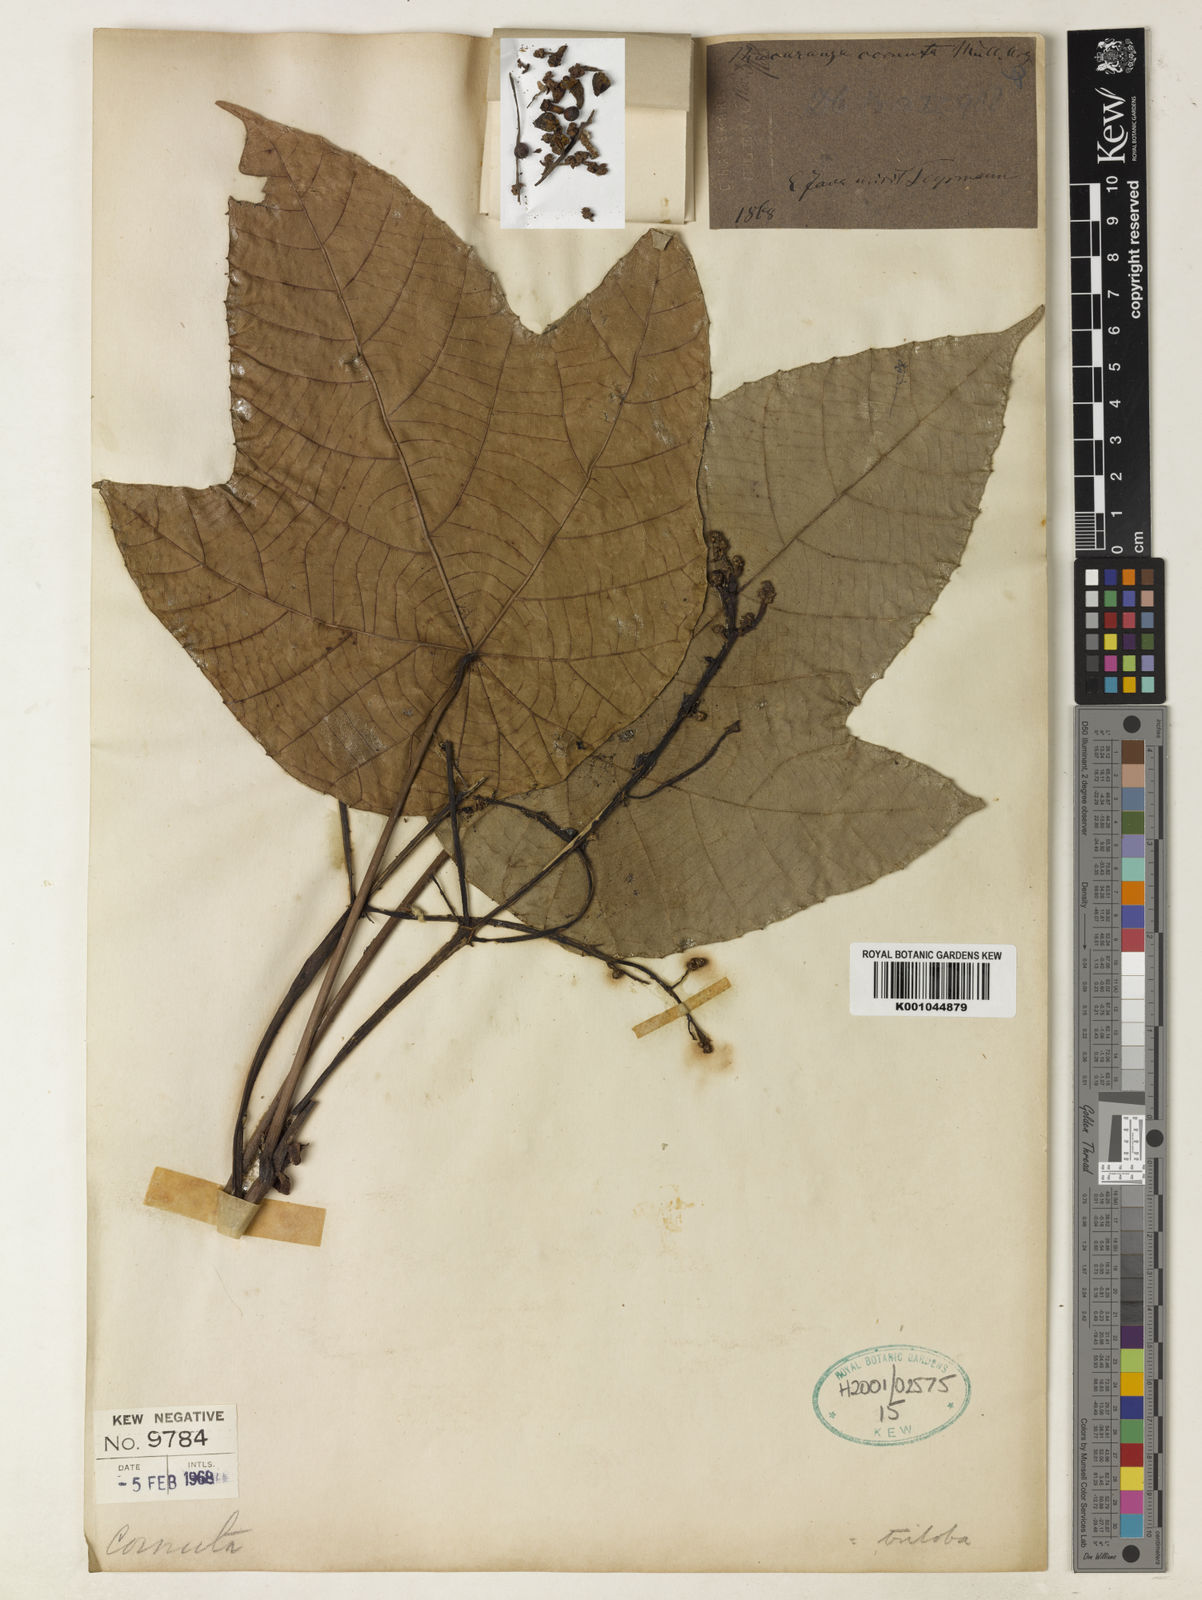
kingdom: Plantae
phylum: Tracheophyta
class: Magnoliopsida
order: Malpighiales
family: Euphorbiaceae
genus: Macaranga
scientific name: Macaranga
